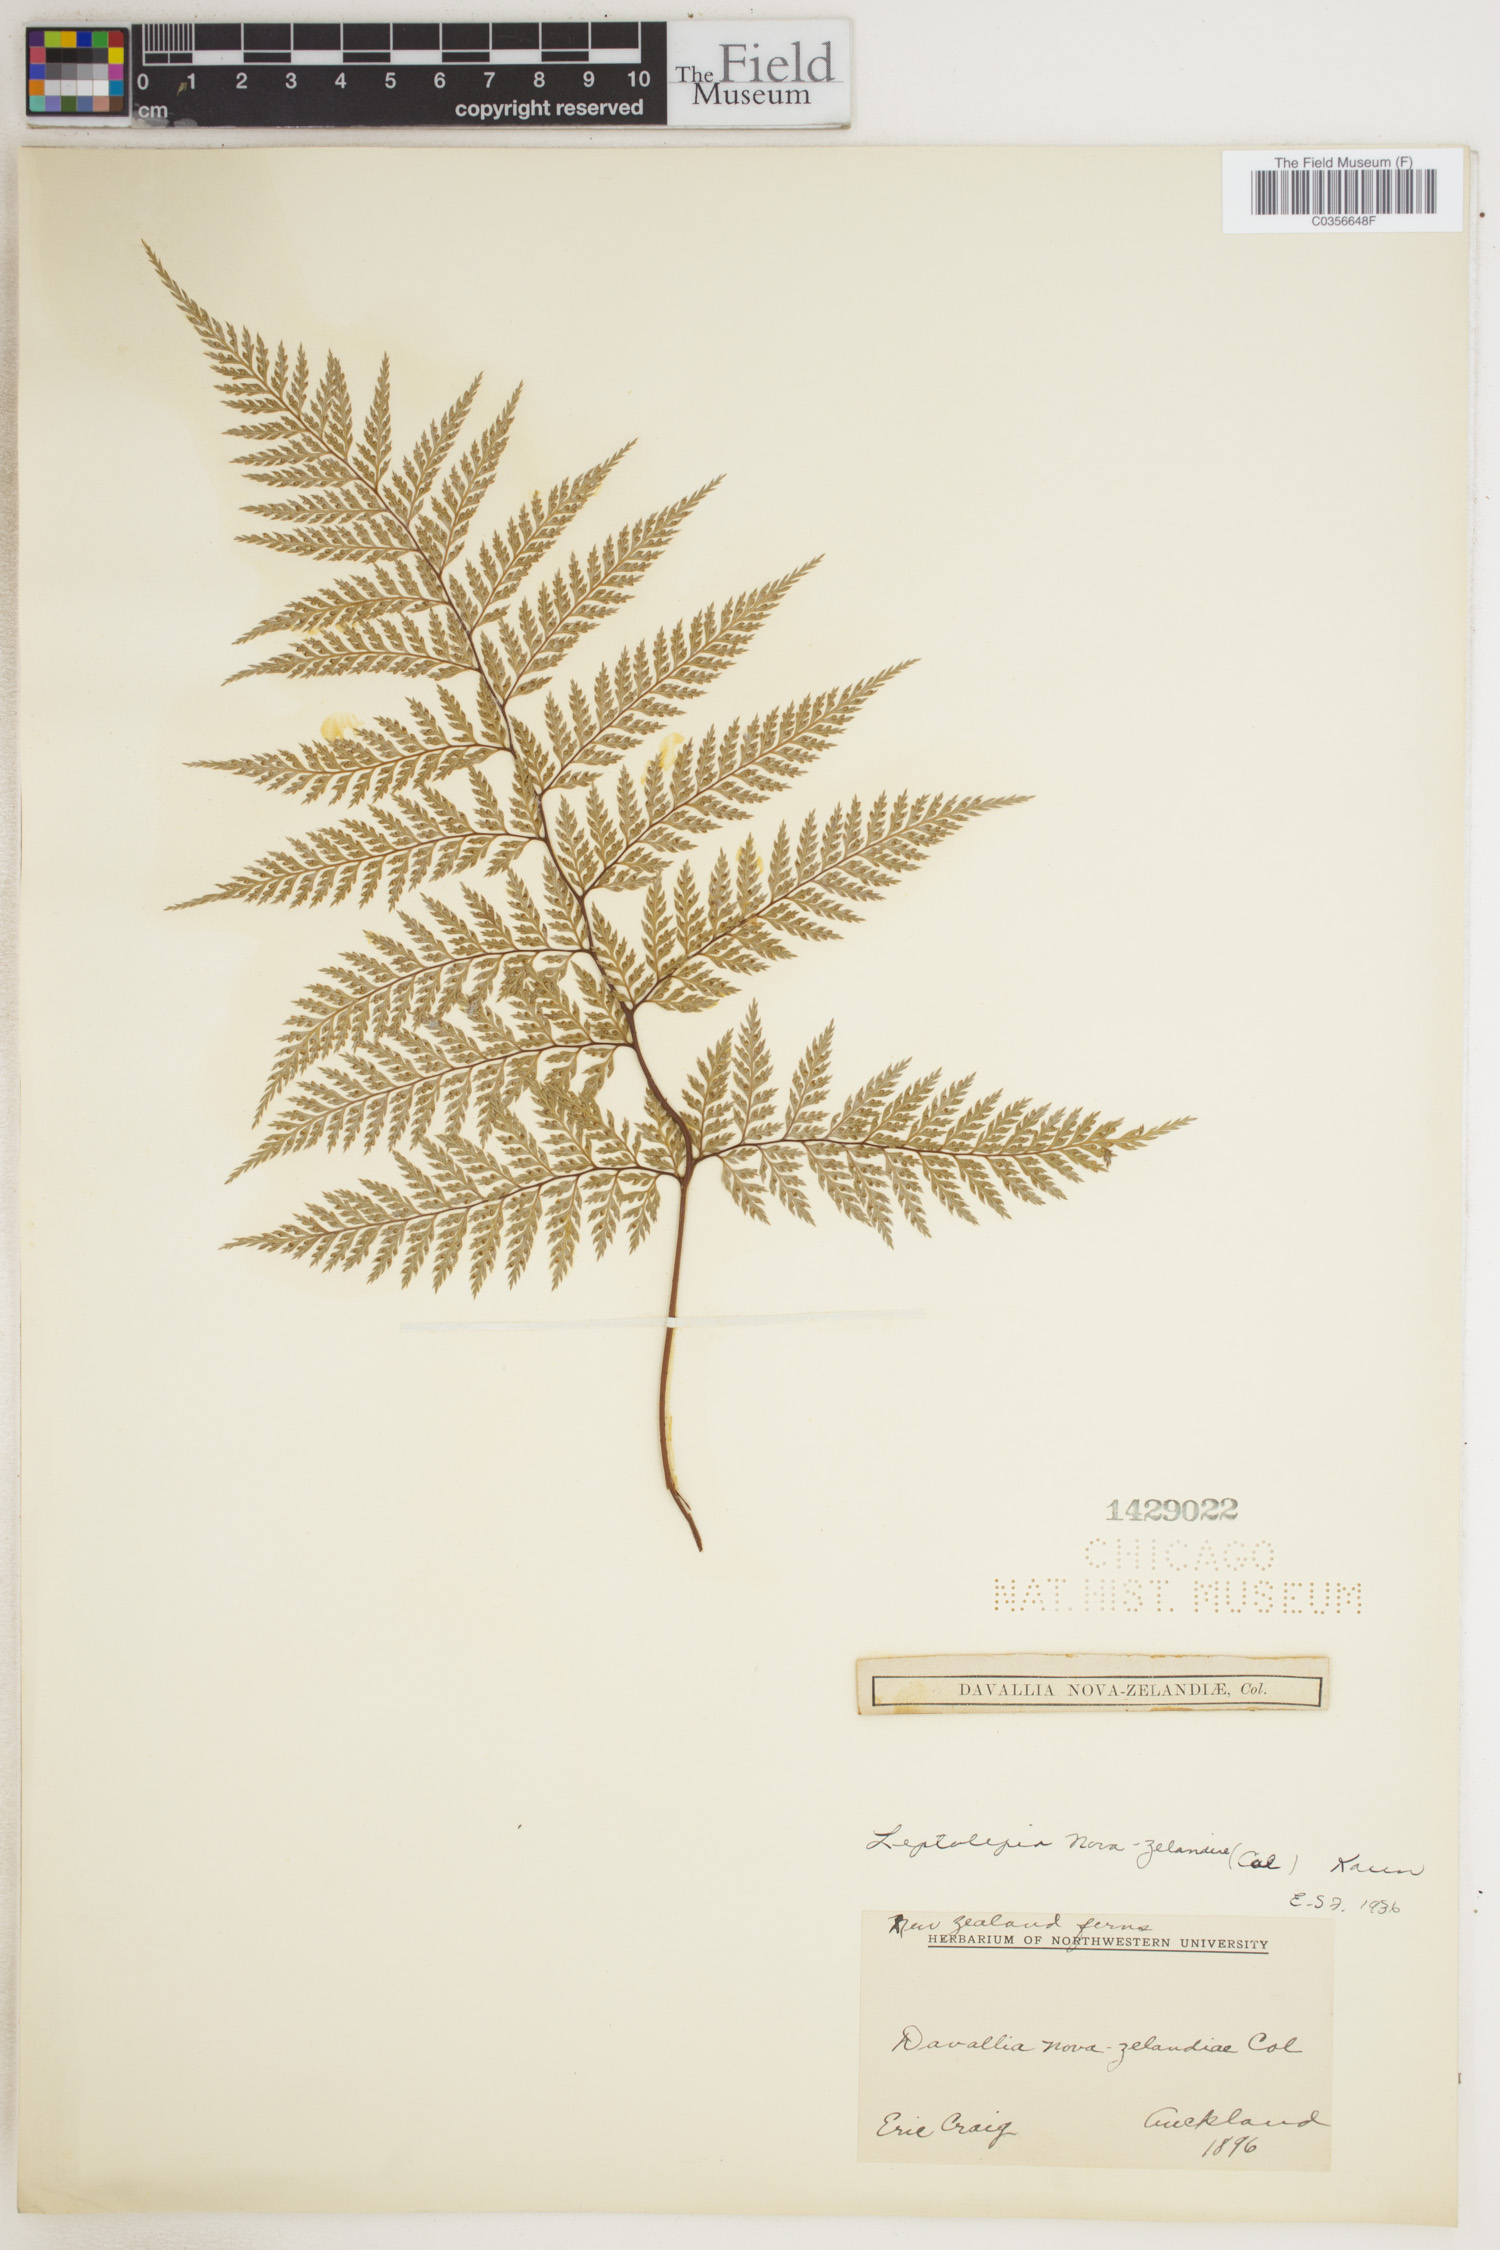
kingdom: Plantae
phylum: Tracheophyta
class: Polypodiopsida
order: Polypodiales
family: Dennstaedtiaceae
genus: Dennstaedtia
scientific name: Dennstaedtia novae-zelandiae
